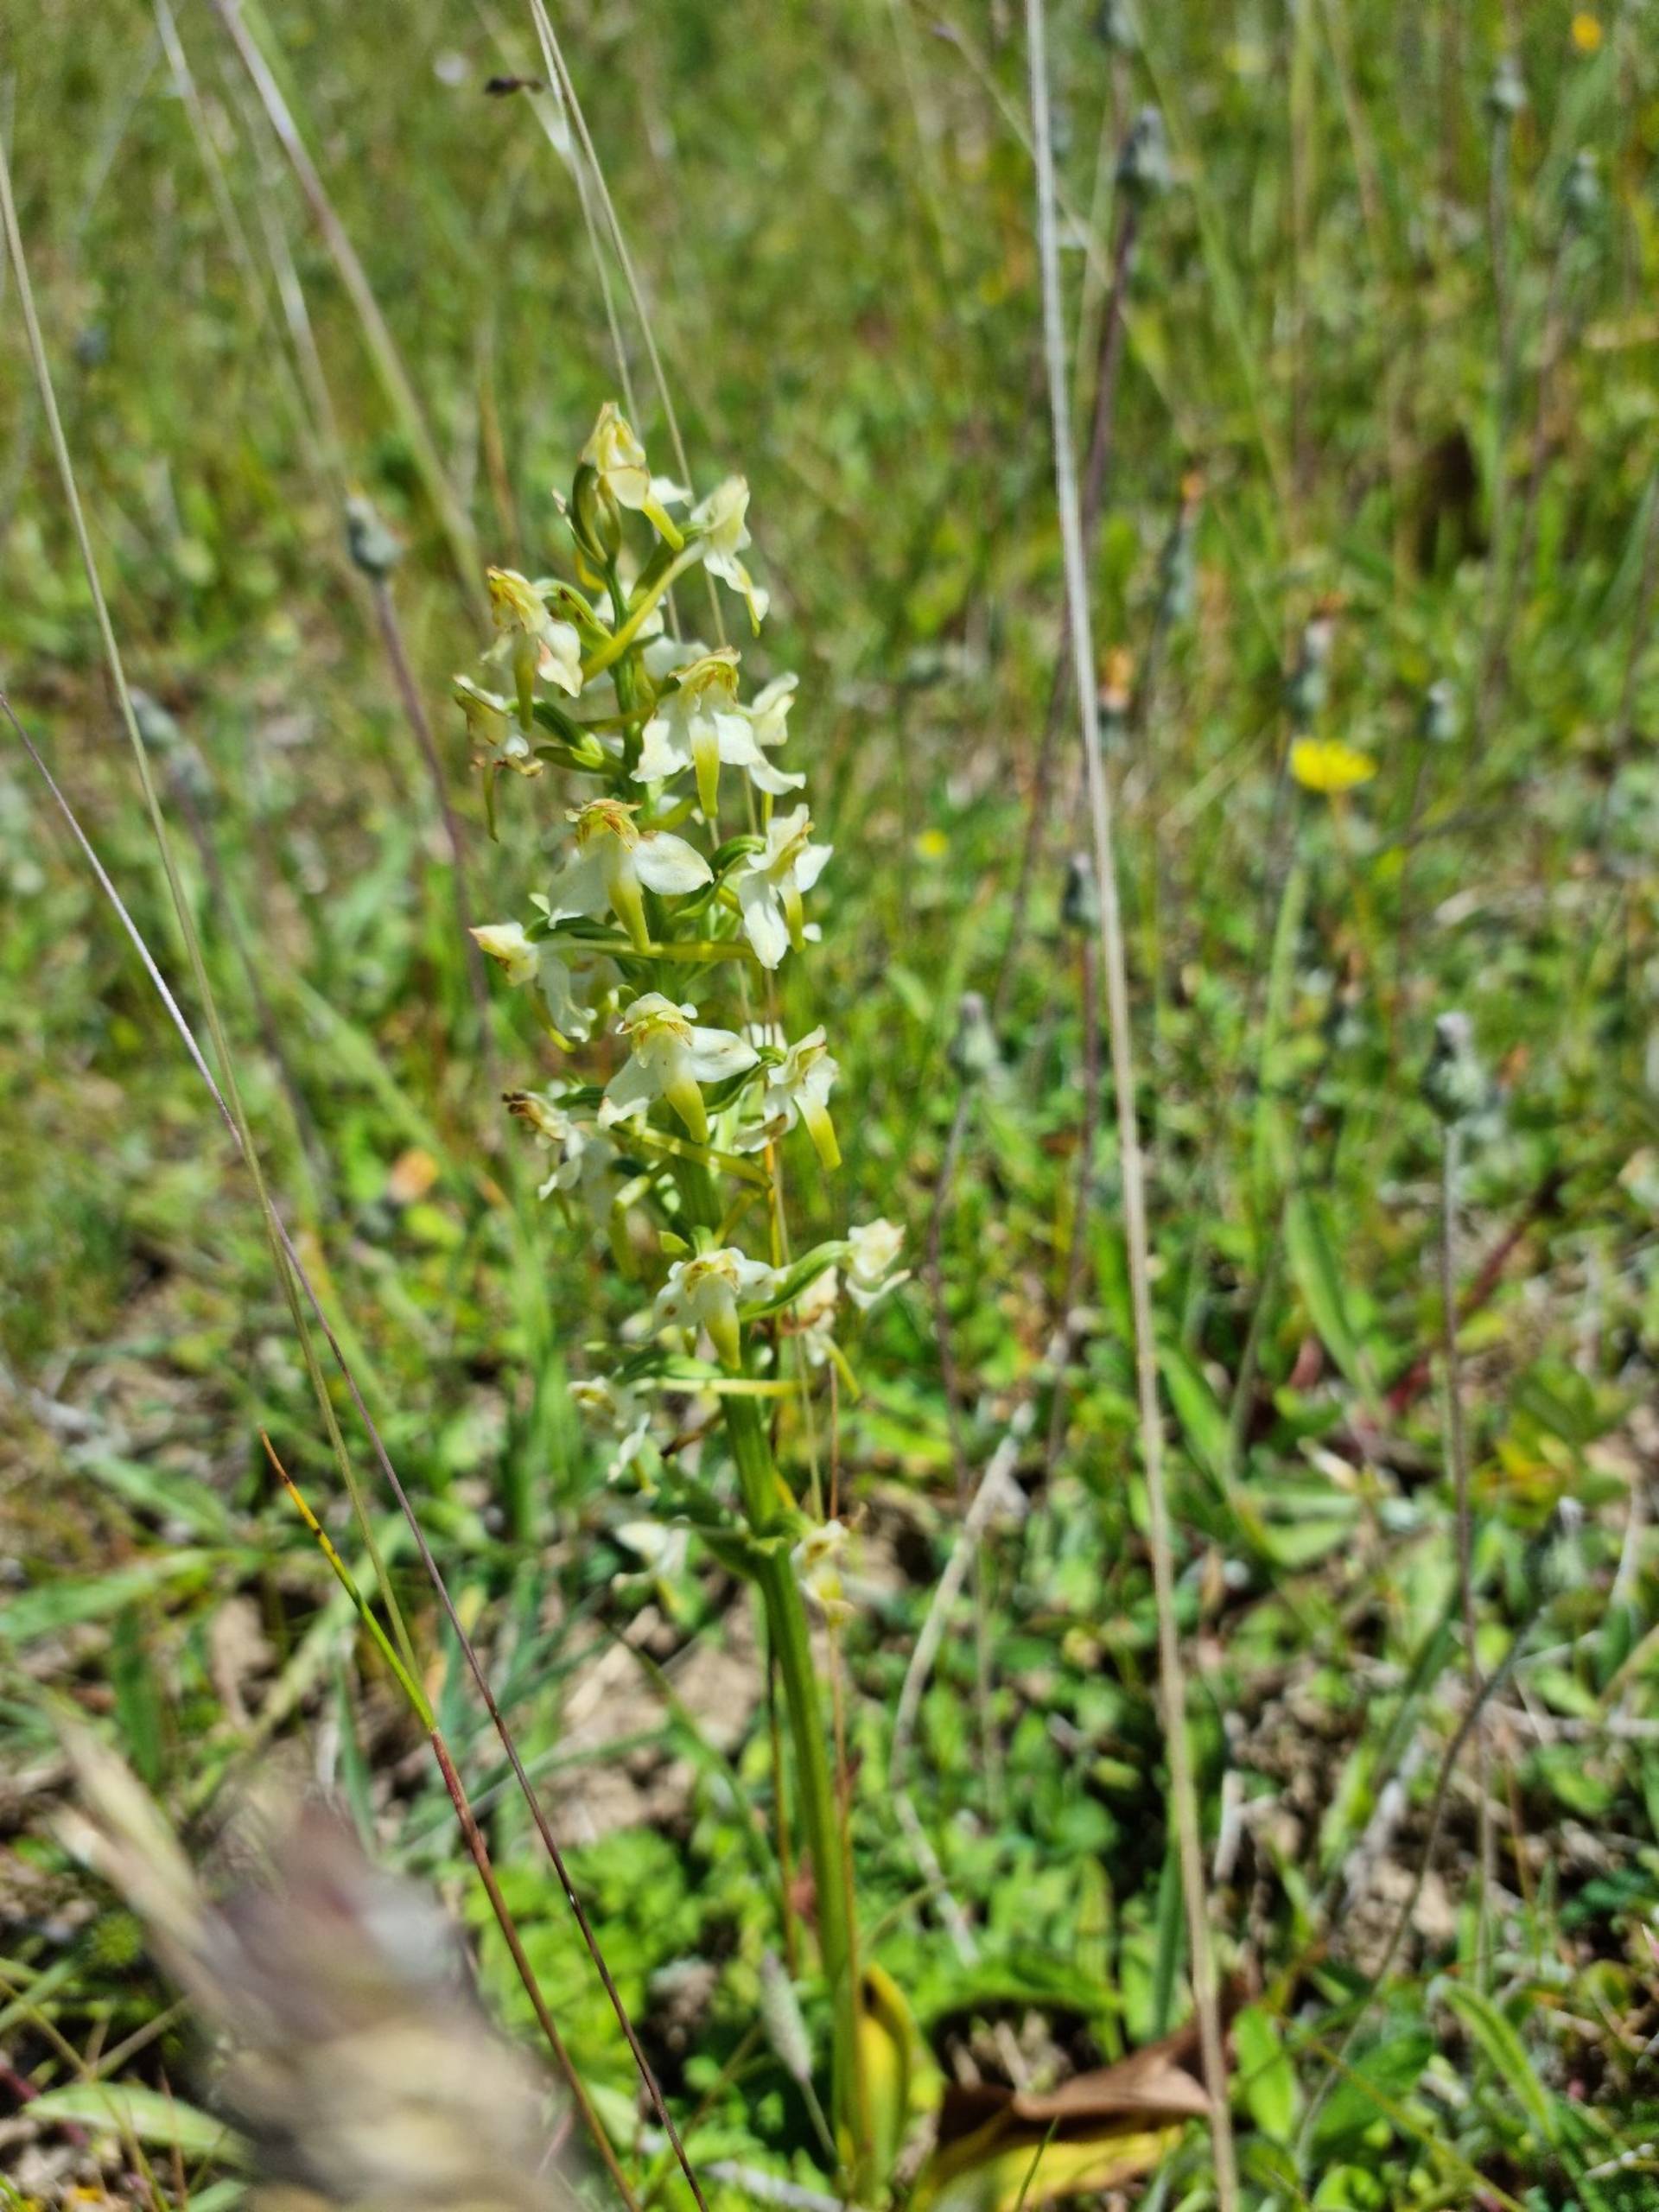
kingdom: Plantae
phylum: Tracheophyta
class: Liliopsida
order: Asparagales
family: Orchidaceae
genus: Platanthera
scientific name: Platanthera chlorantha
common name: Skov-gøgelilje
